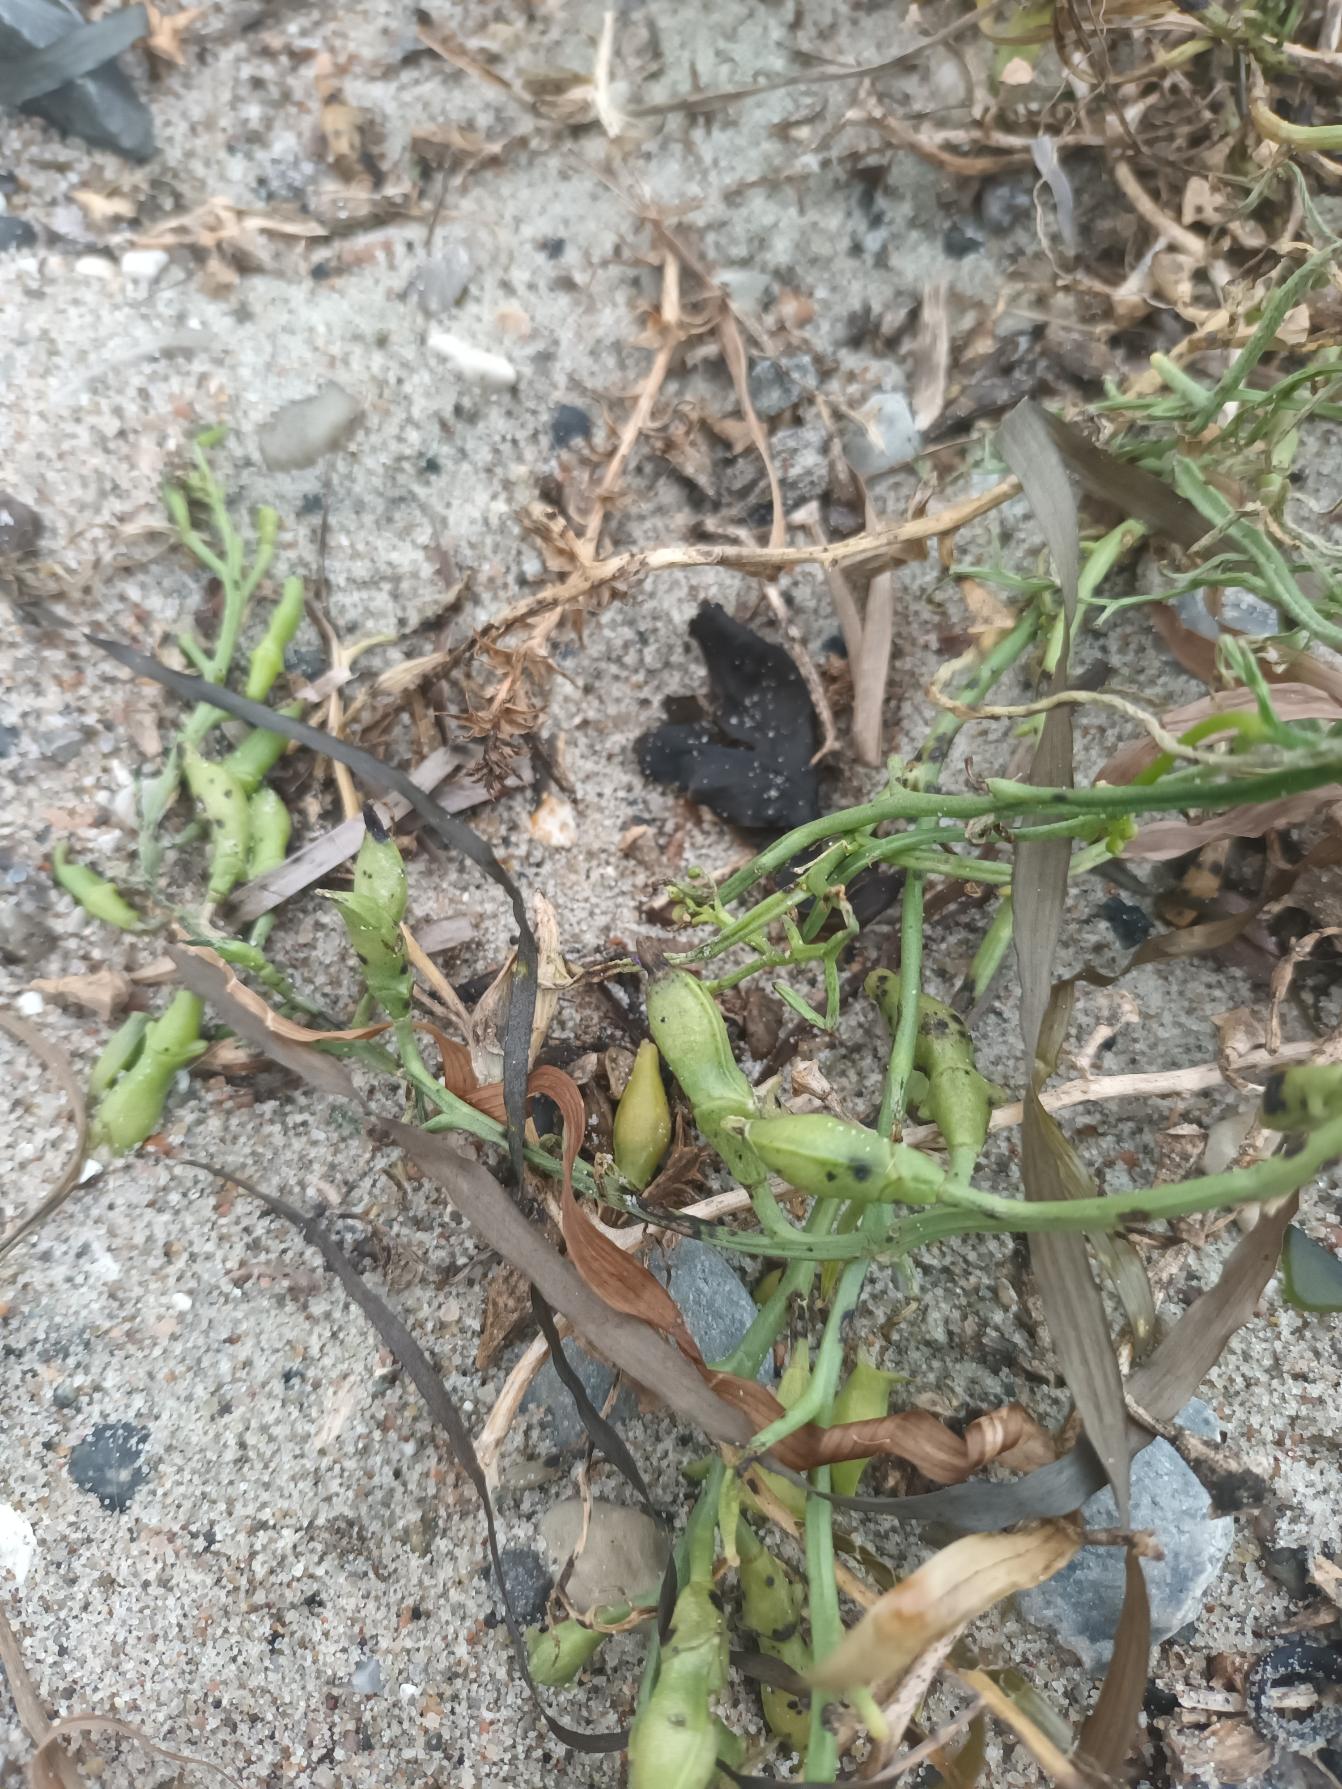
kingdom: Plantae
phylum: Tracheophyta
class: Magnoliopsida
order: Brassicales
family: Brassicaceae
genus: Cakile
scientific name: Cakile maritima
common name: Strandsennep
